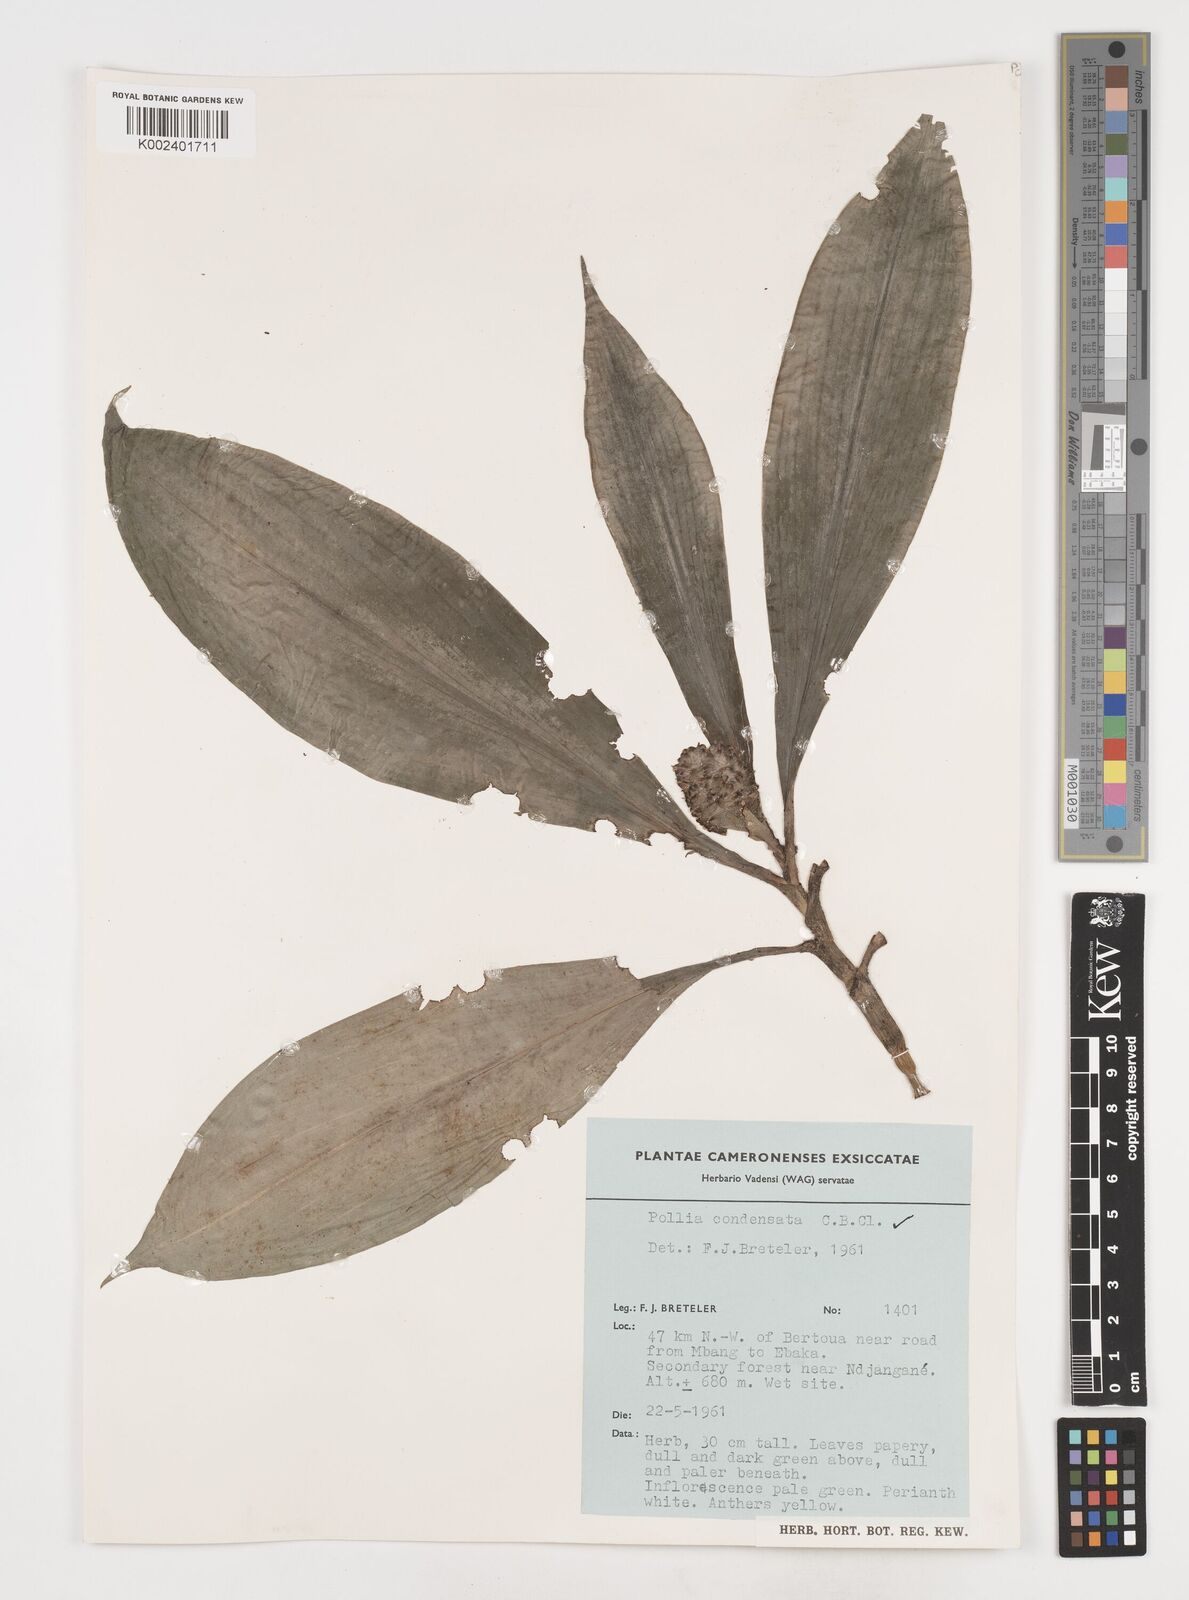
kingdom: Plantae
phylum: Tracheophyta
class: Liliopsida
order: Commelinales
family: Commelinaceae
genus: Pollia
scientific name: Pollia condensata
